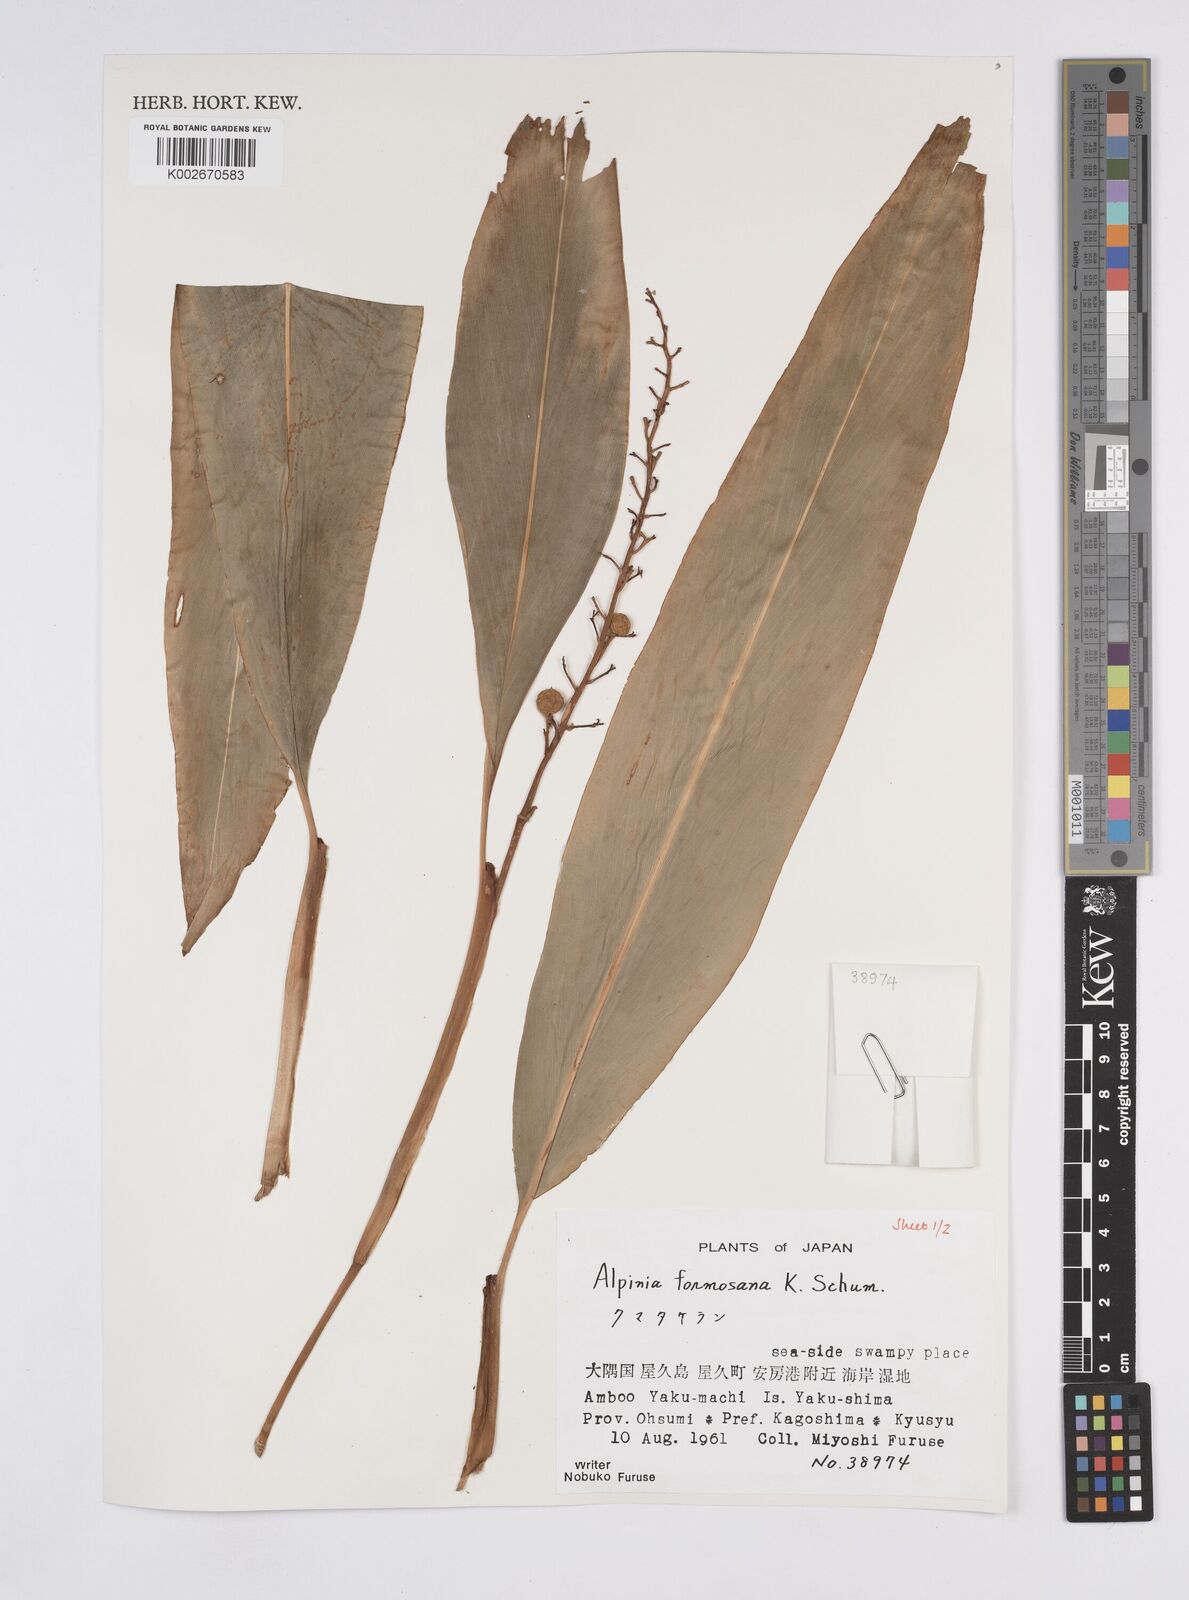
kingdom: Plantae
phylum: Tracheophyta
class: Liliopsida
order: Zingiberales
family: Zingiberaceae
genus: Alpinia
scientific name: Alpinia formosana
